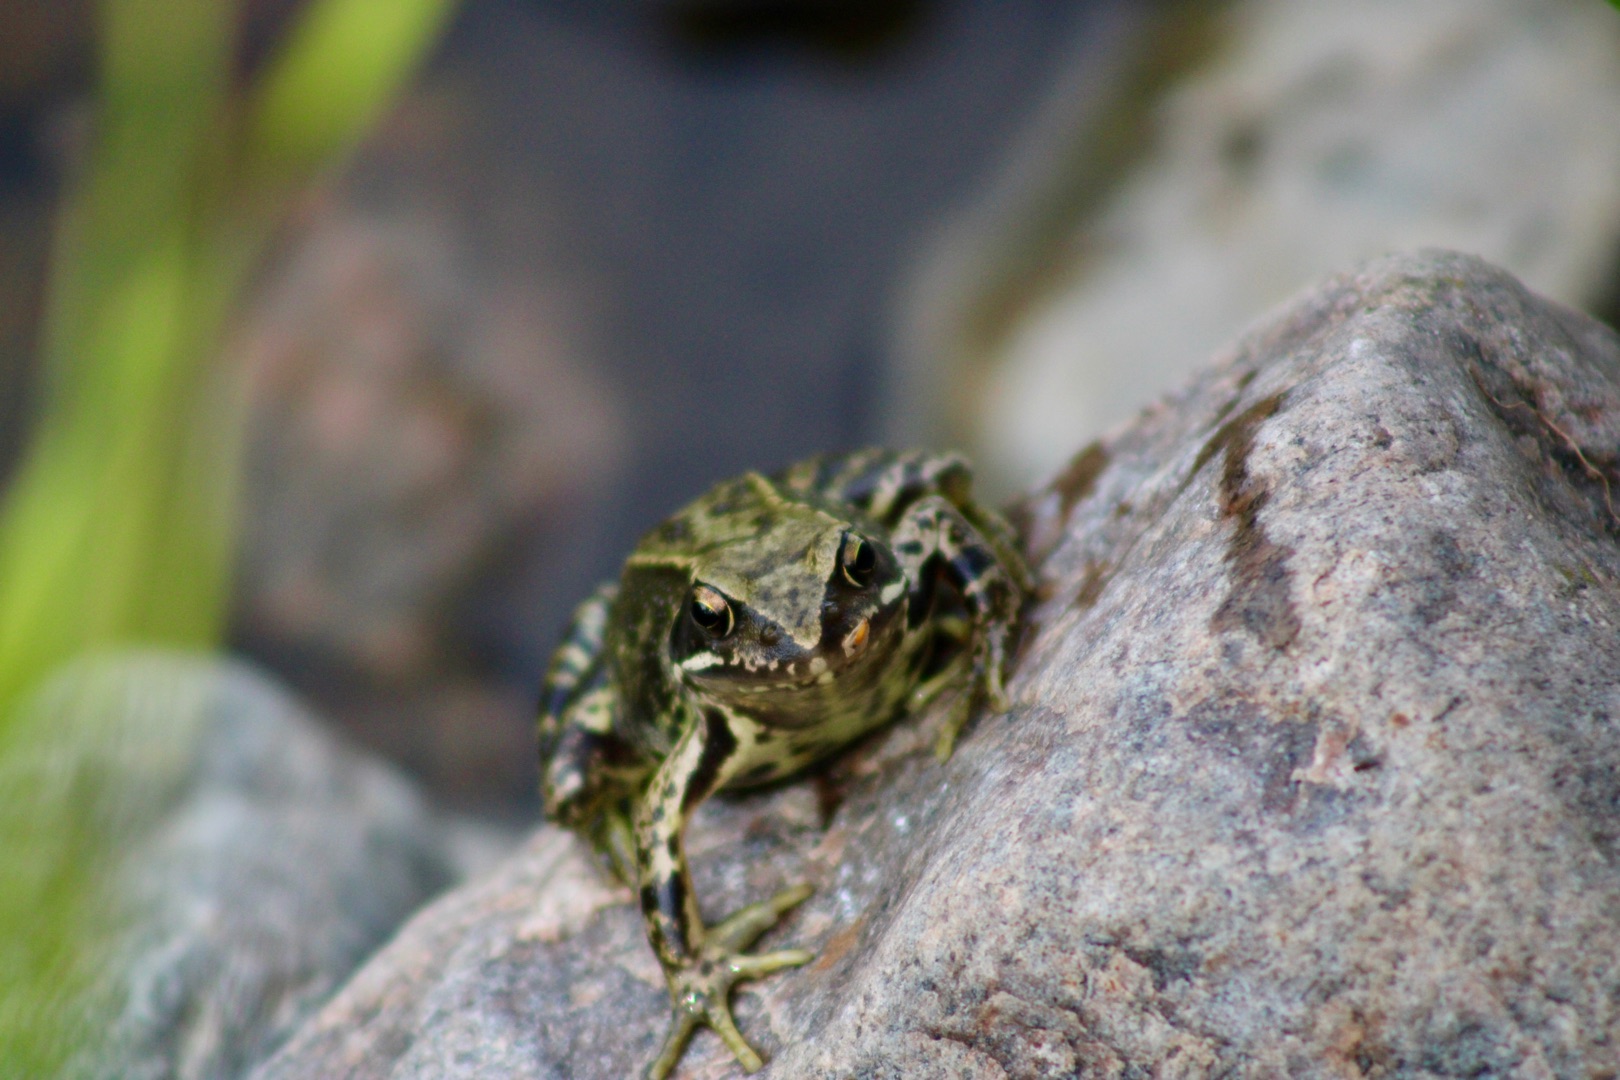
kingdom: Animalia
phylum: Chordata
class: Amphibia
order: Anura
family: Ranidae
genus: Rana
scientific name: Rana temporaria
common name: Butsnudet frø
